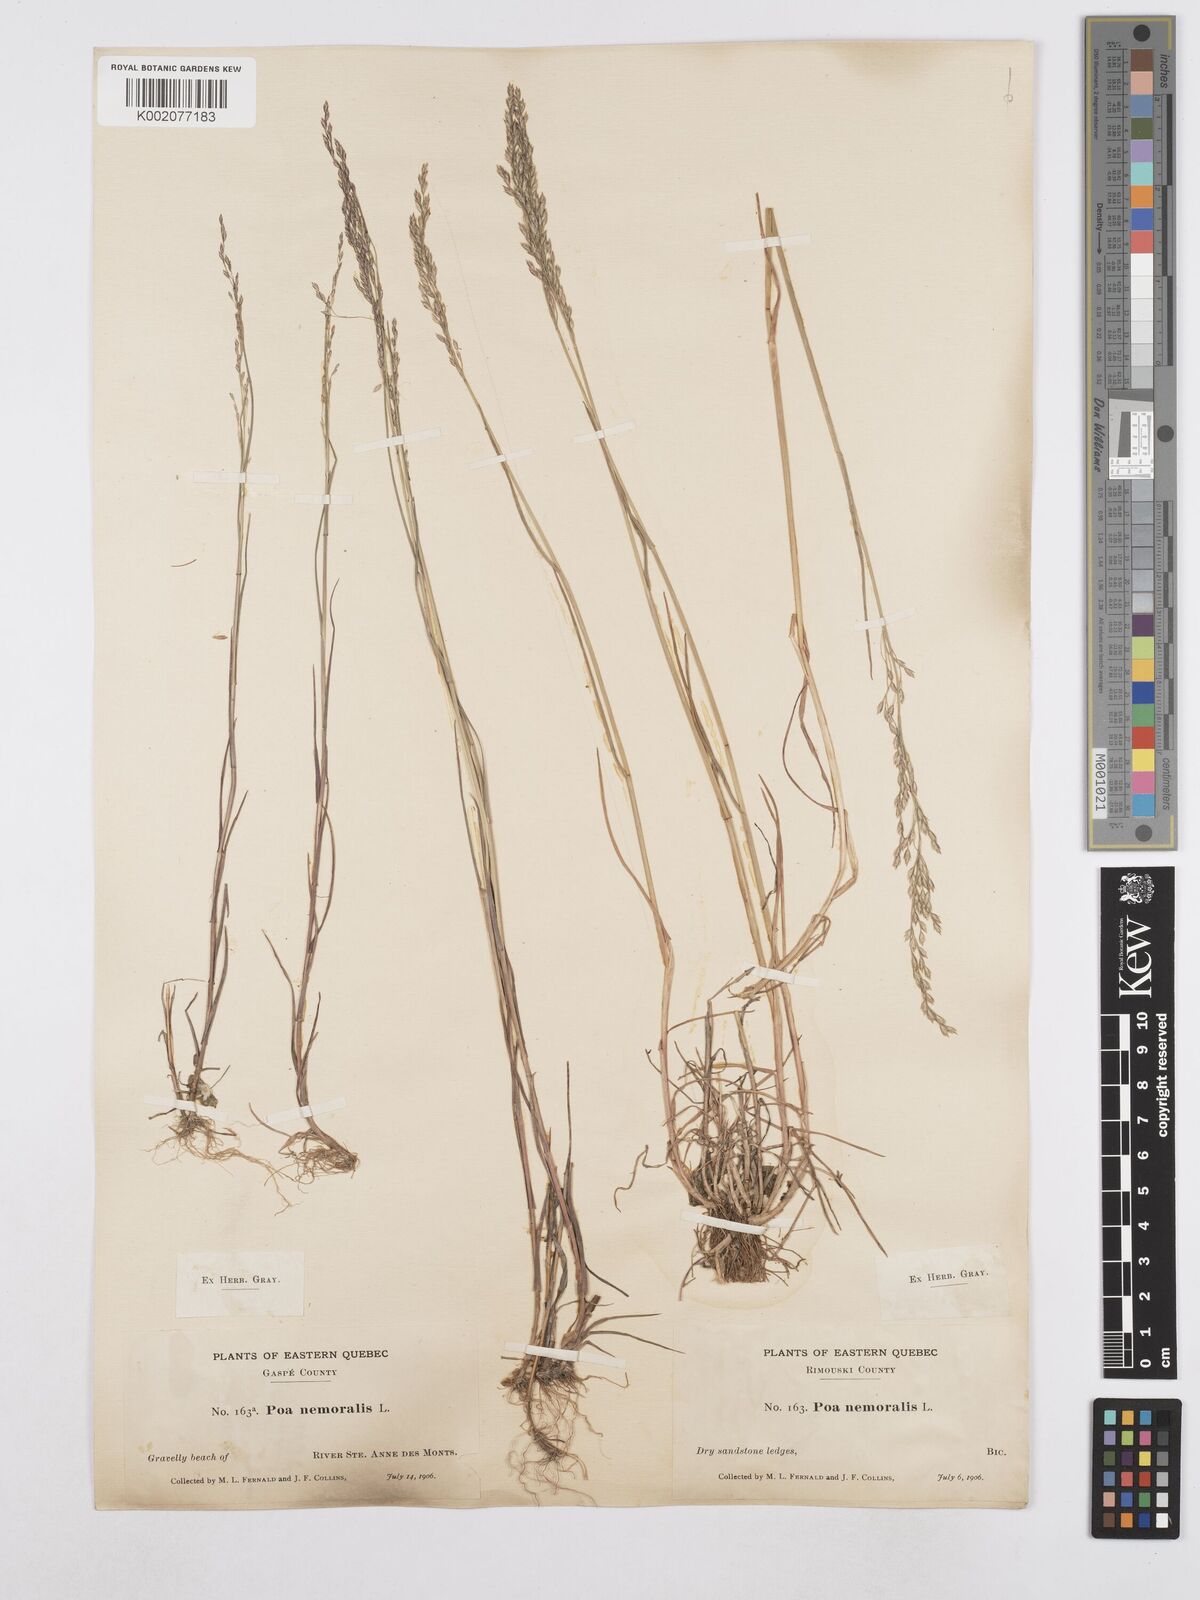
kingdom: Plantae
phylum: Tracheophyta
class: Liliopsida
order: Poales
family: Poaceae
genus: Poa
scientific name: Poa nemoralis
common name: Wood bluegrass
